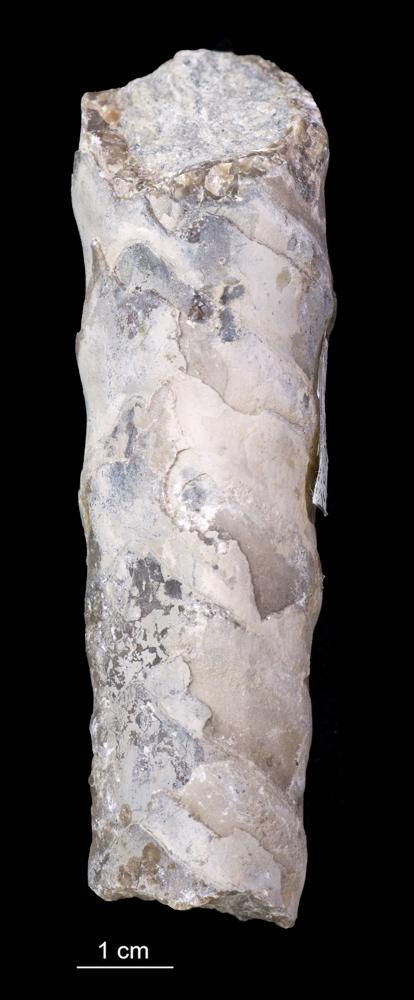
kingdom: Animalia
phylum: Mollusca
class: Cephalopoda
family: Estonioceratidae
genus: Estonioceras
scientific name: Estonioceras
